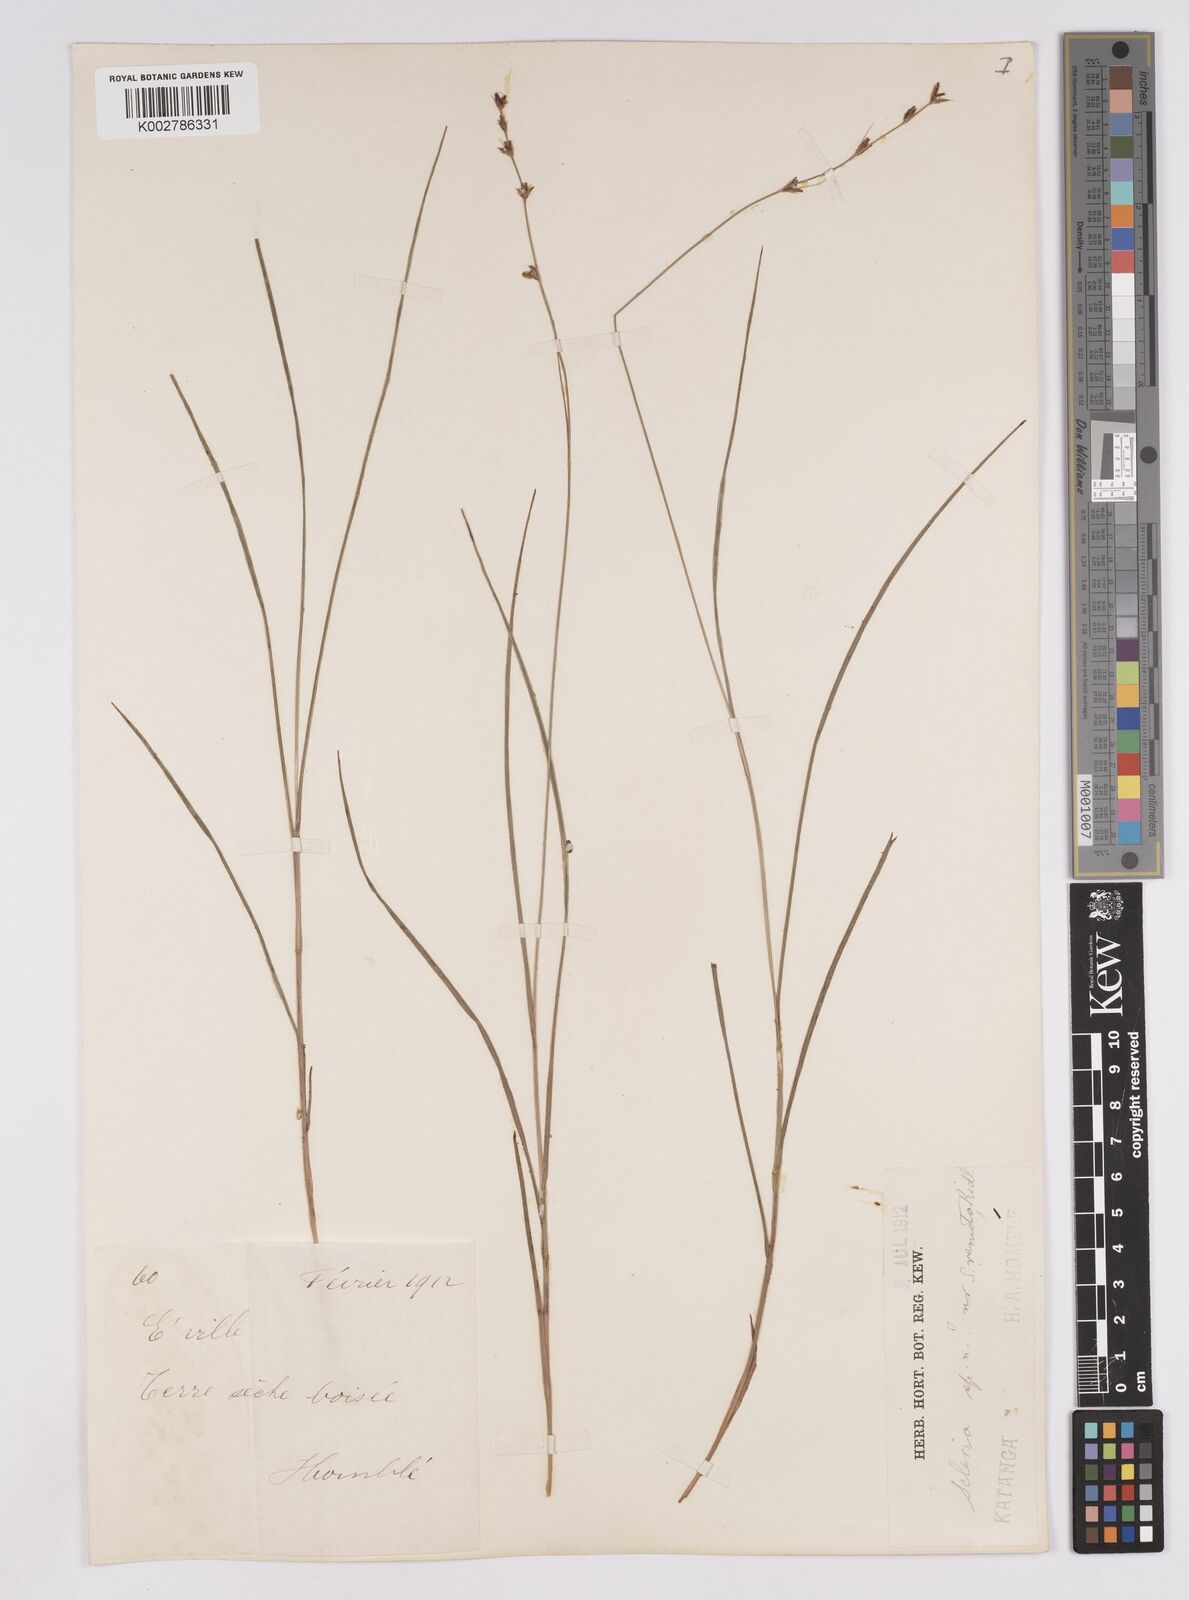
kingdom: Plantae
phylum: Tracheophyta
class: Liliopsida
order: Poales
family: Cyperaceae
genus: Scleria
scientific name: Scleria bulbifera
